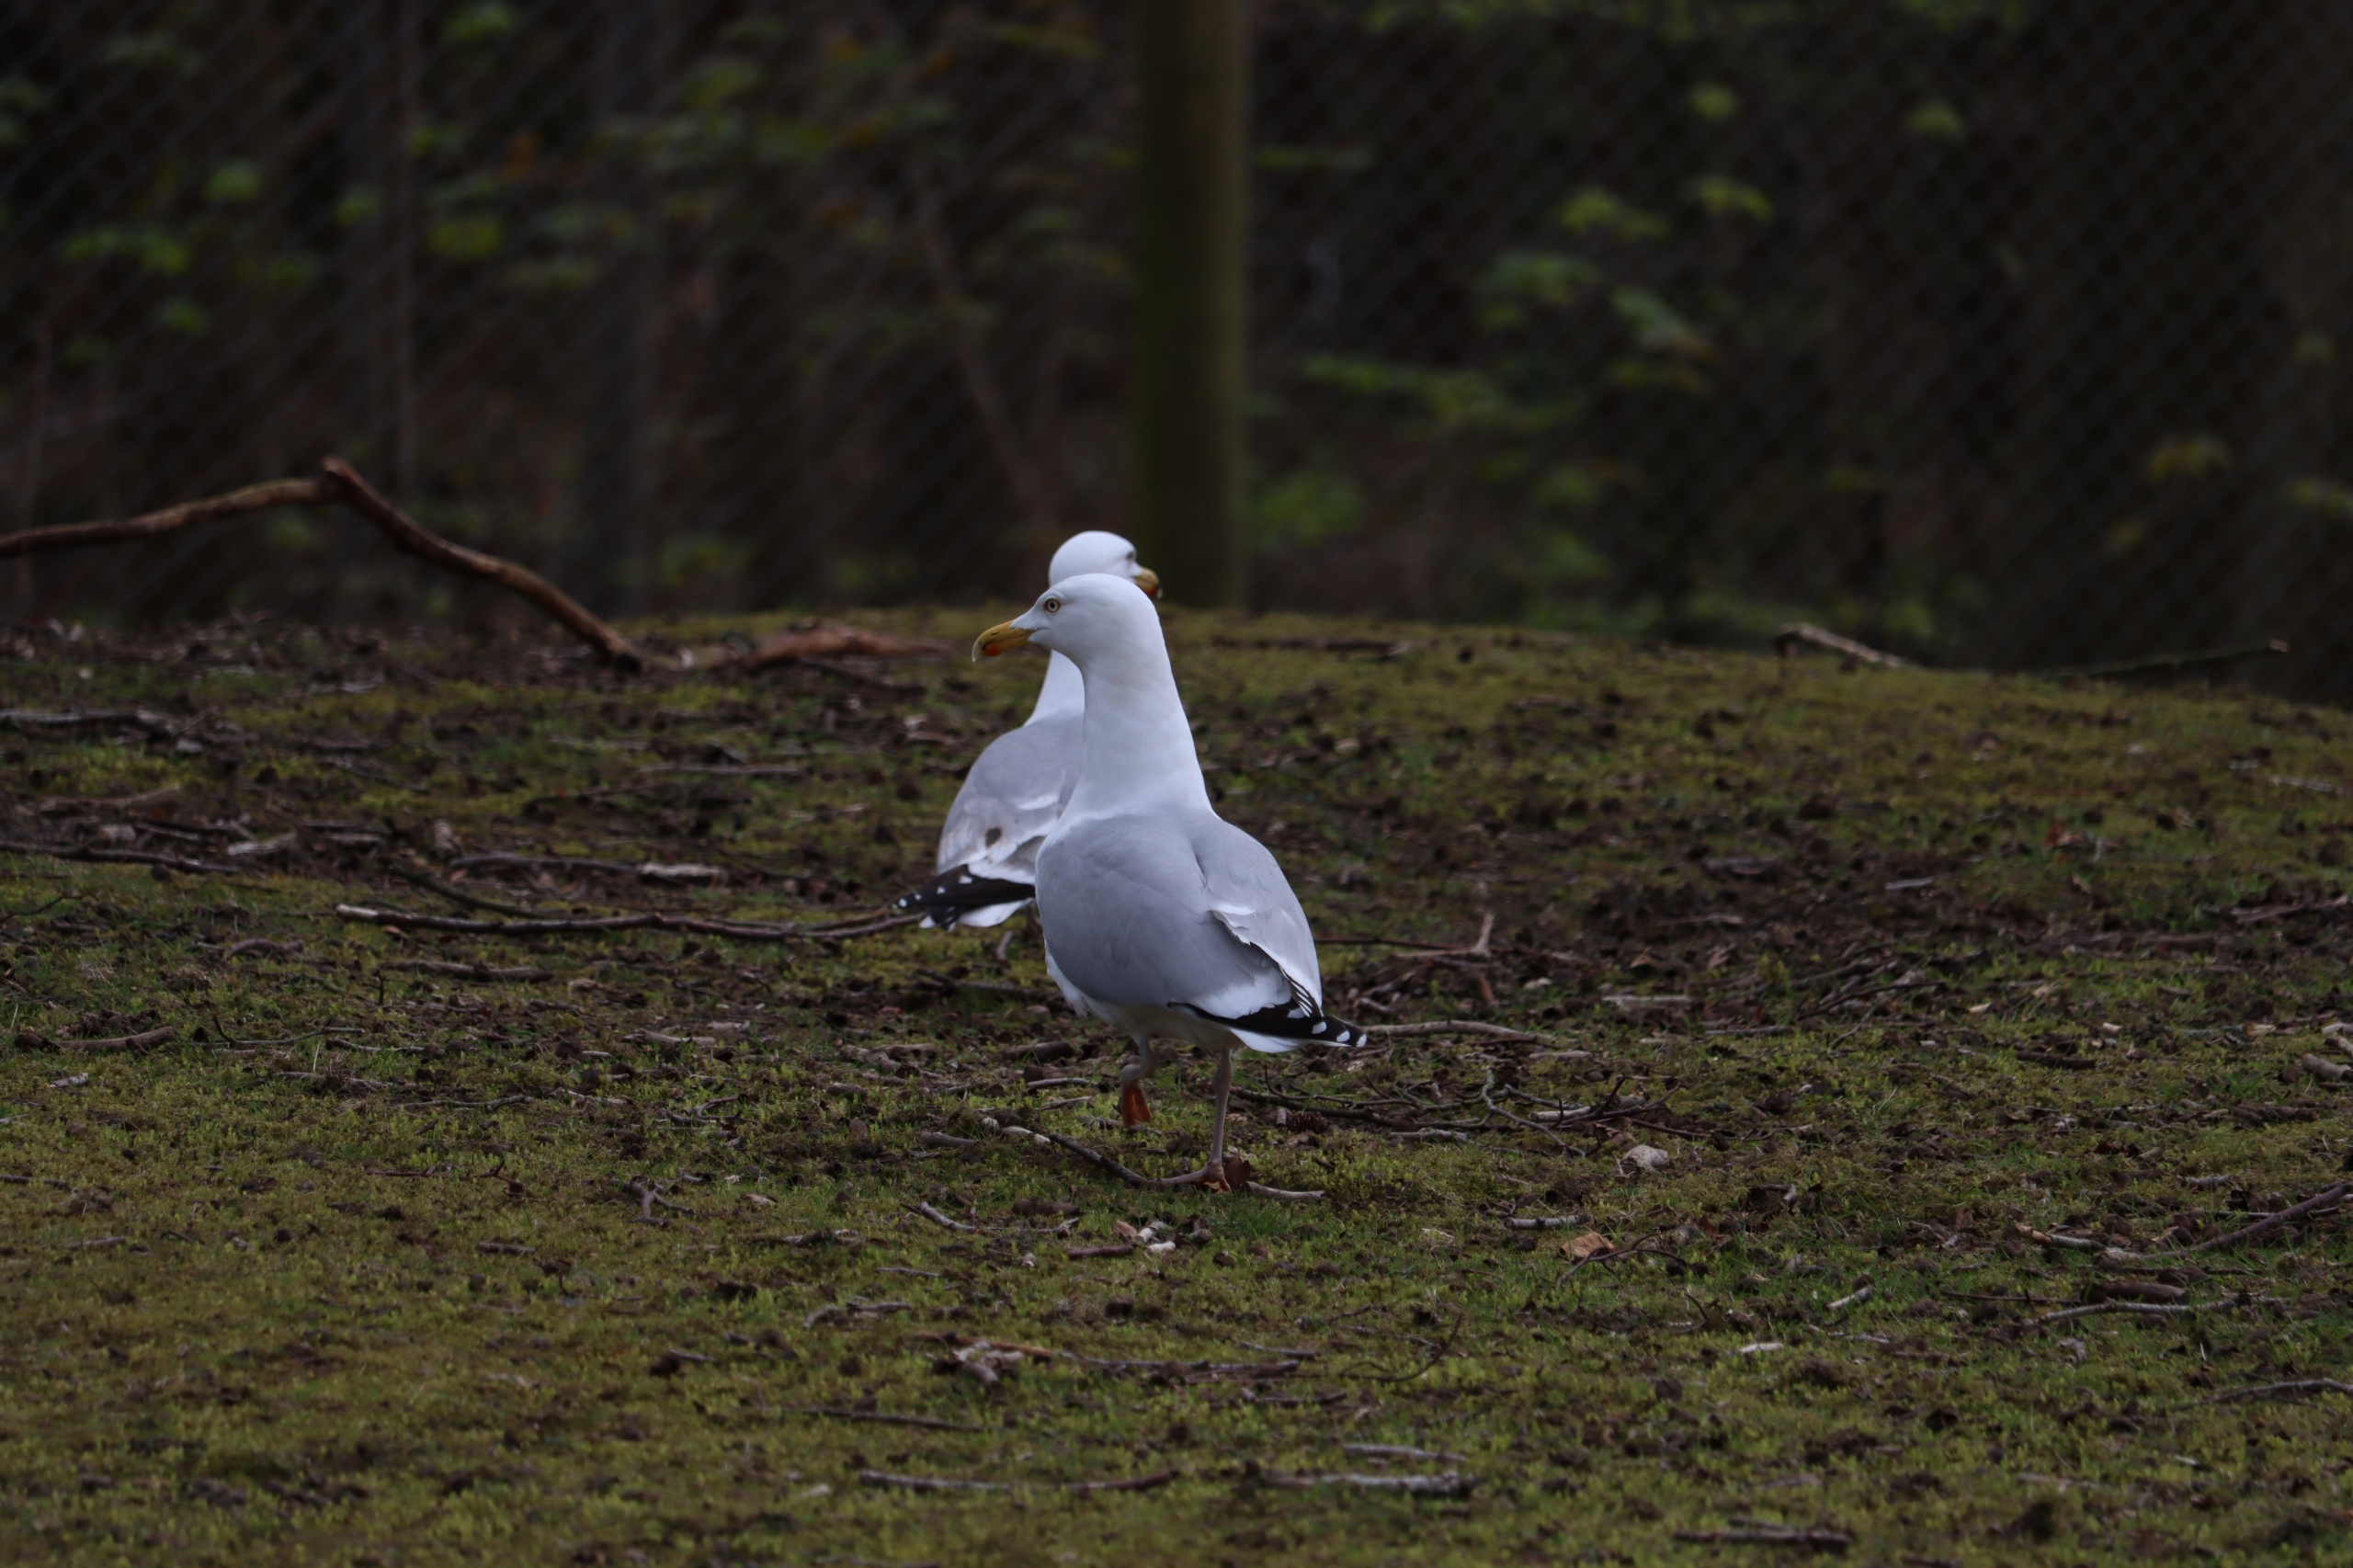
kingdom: Animalia
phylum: Chordata
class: Aves
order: Charadriiformes
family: Laridae
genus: Larus
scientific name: Larus argentatus
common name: Sølvmåge
